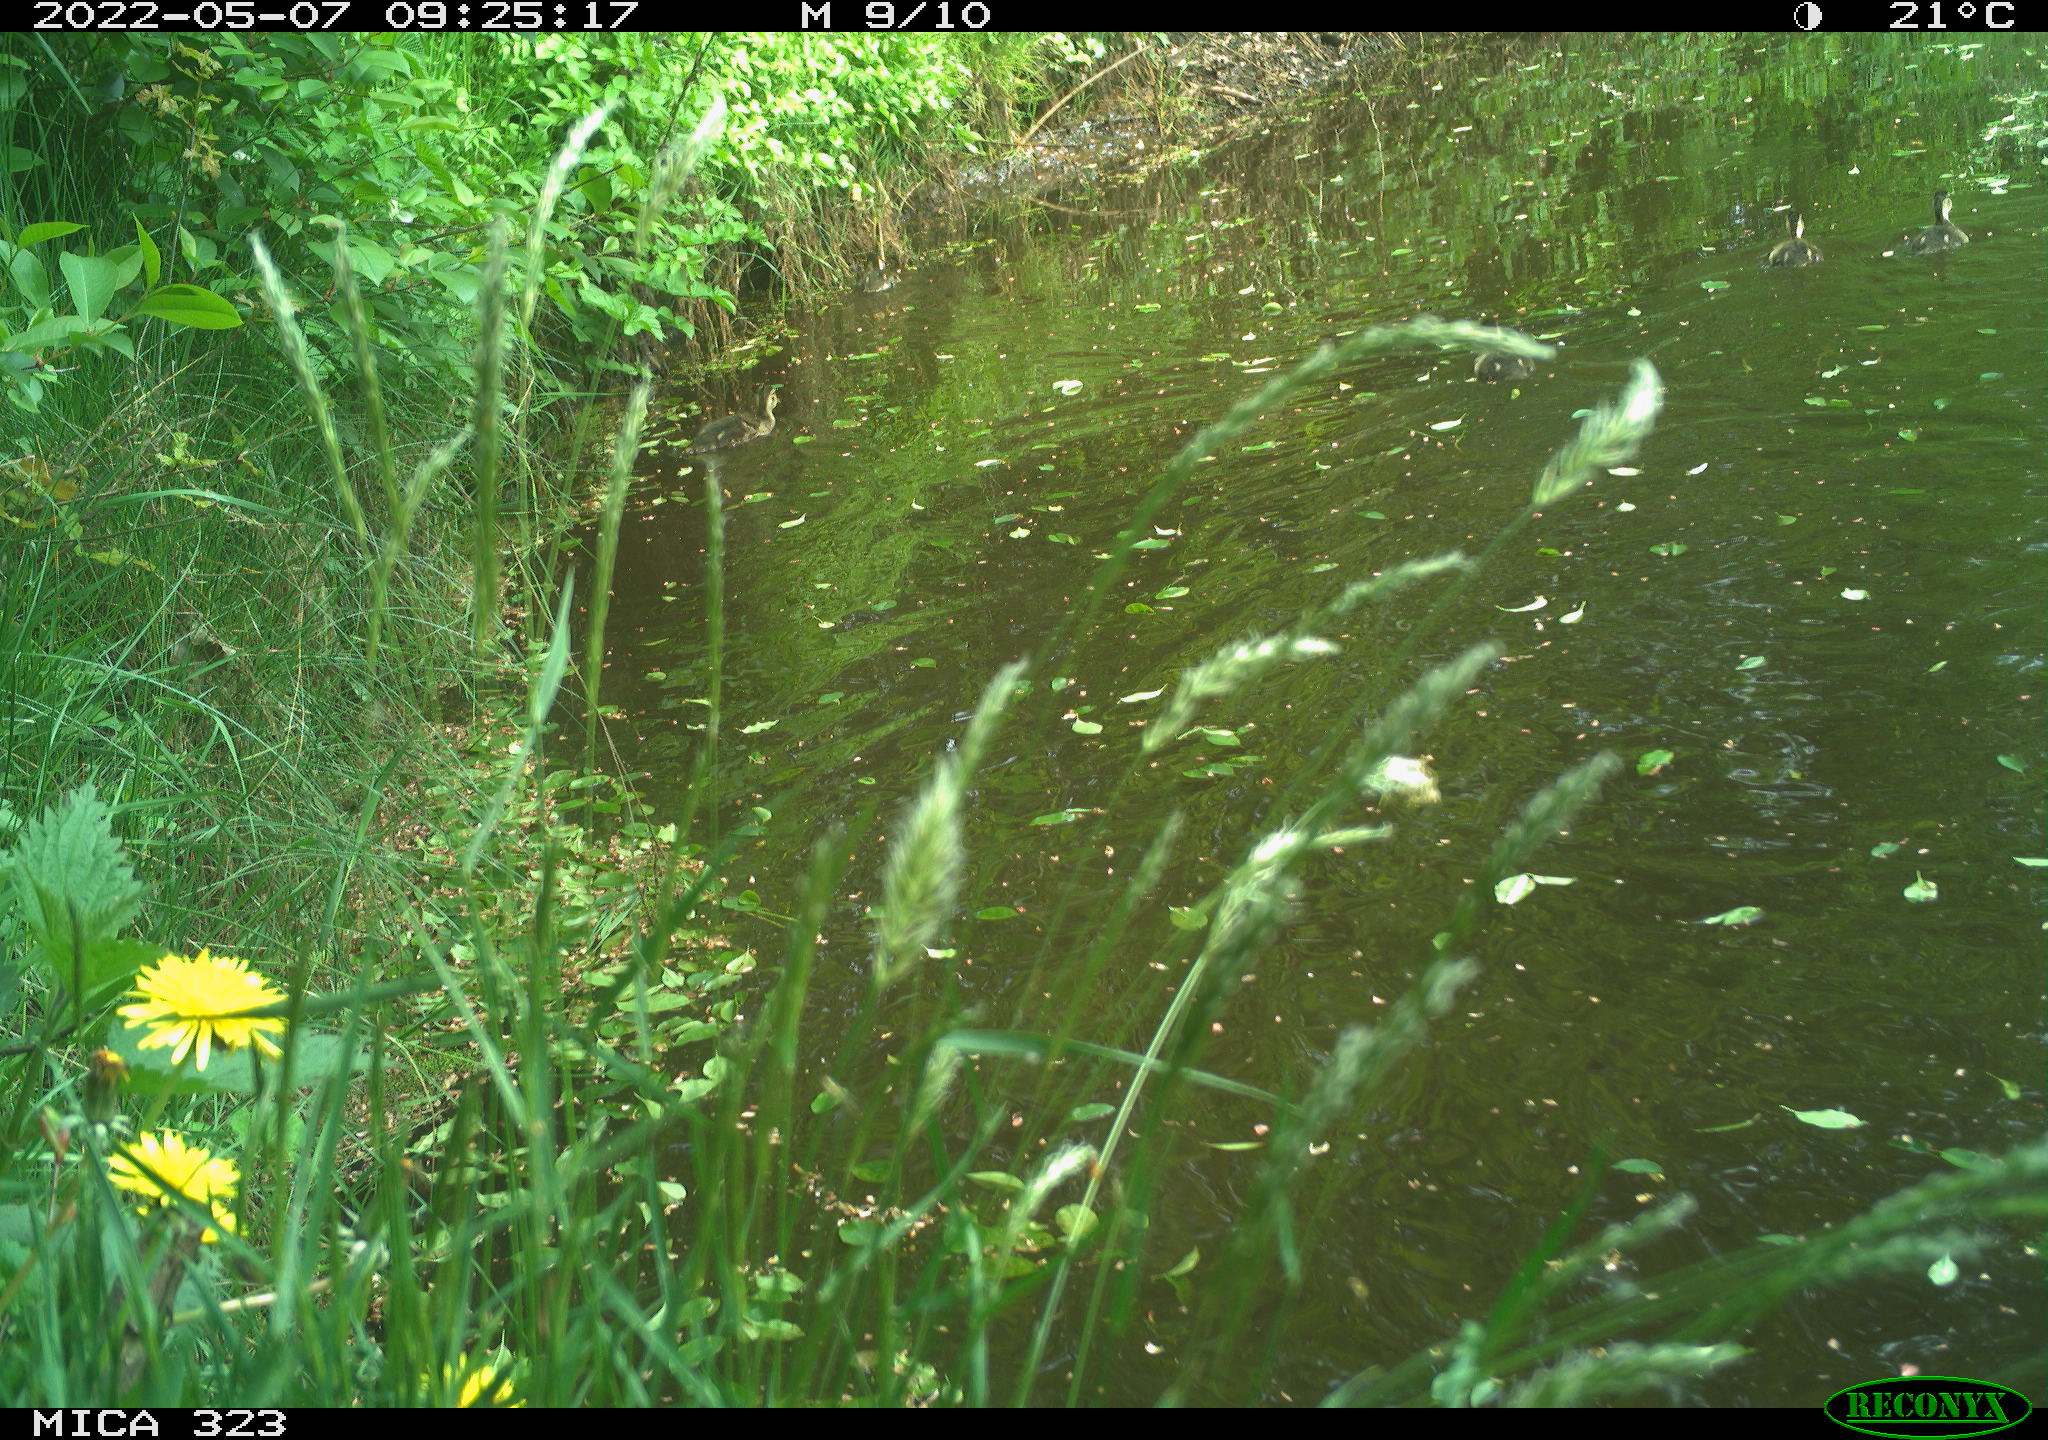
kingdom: Animalia
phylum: Chordata
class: Aves
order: Anseriformes
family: Anatidae
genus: Anas
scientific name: Anas platyrhynchos
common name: Mallard
